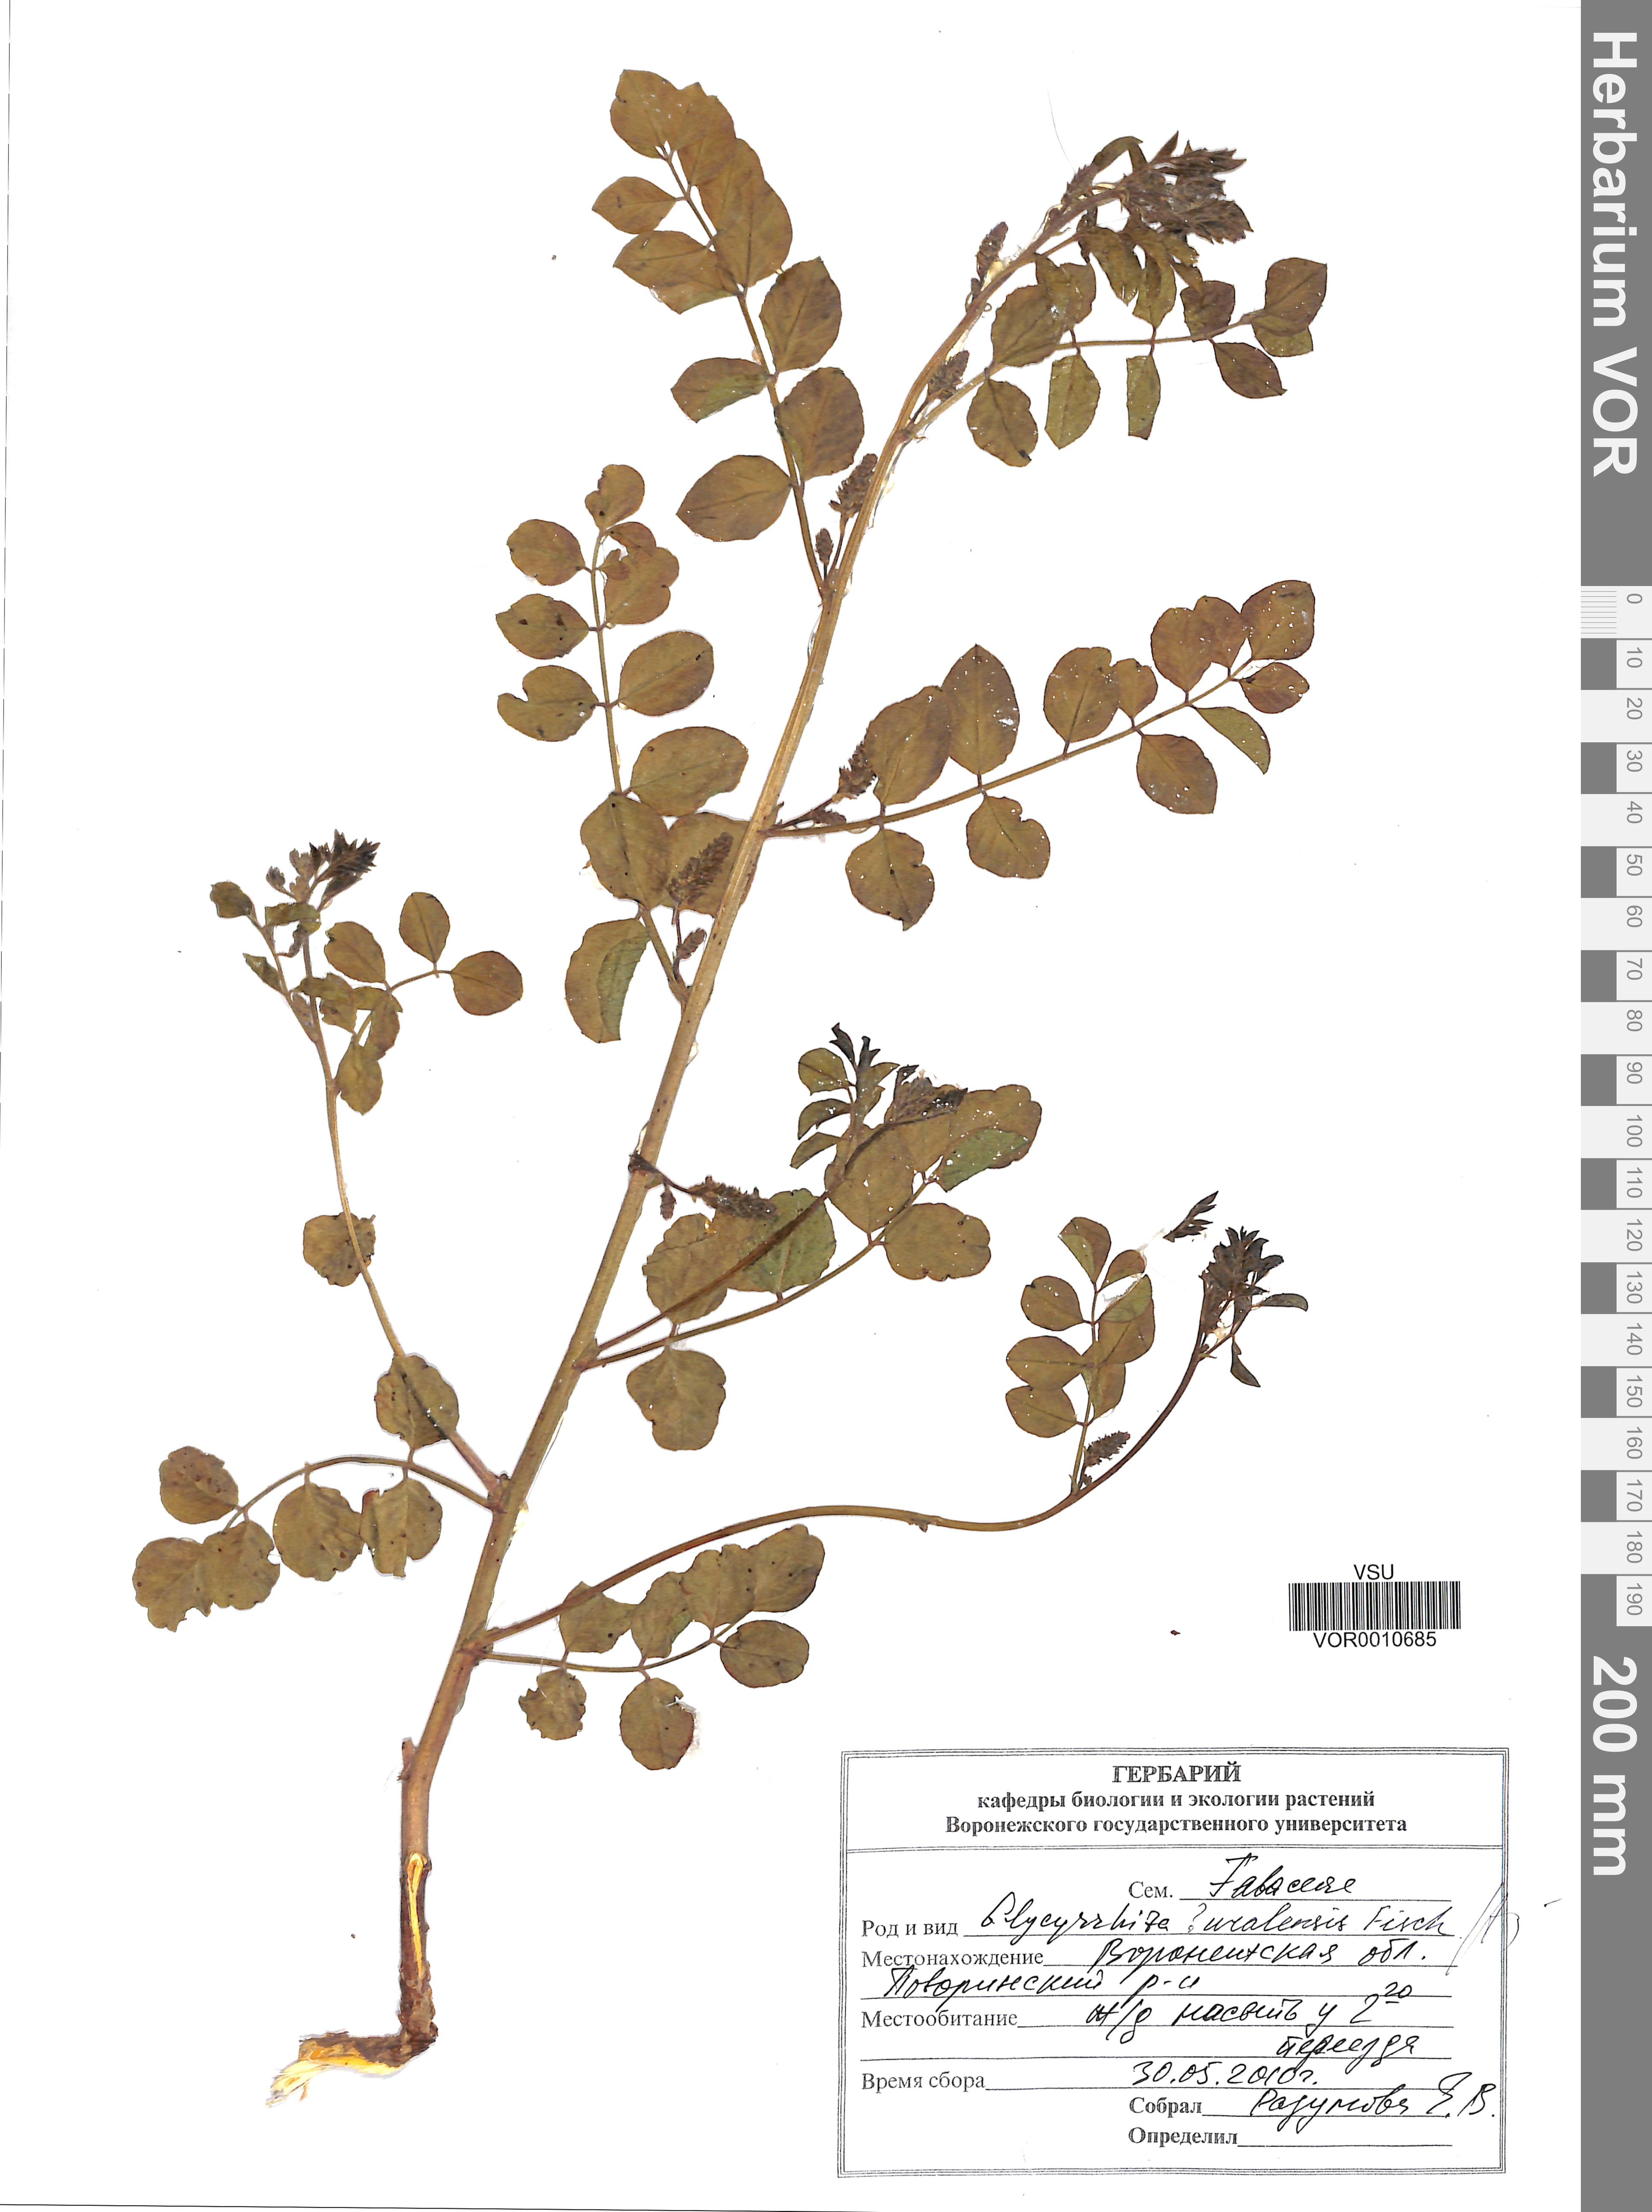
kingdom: Plantae
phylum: Tracheophyta
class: Magnoliopsida
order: Fabales
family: Fabaceae
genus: Glycyrrhiza
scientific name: Glycyrrhiza uralensis
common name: Chinese licorice
